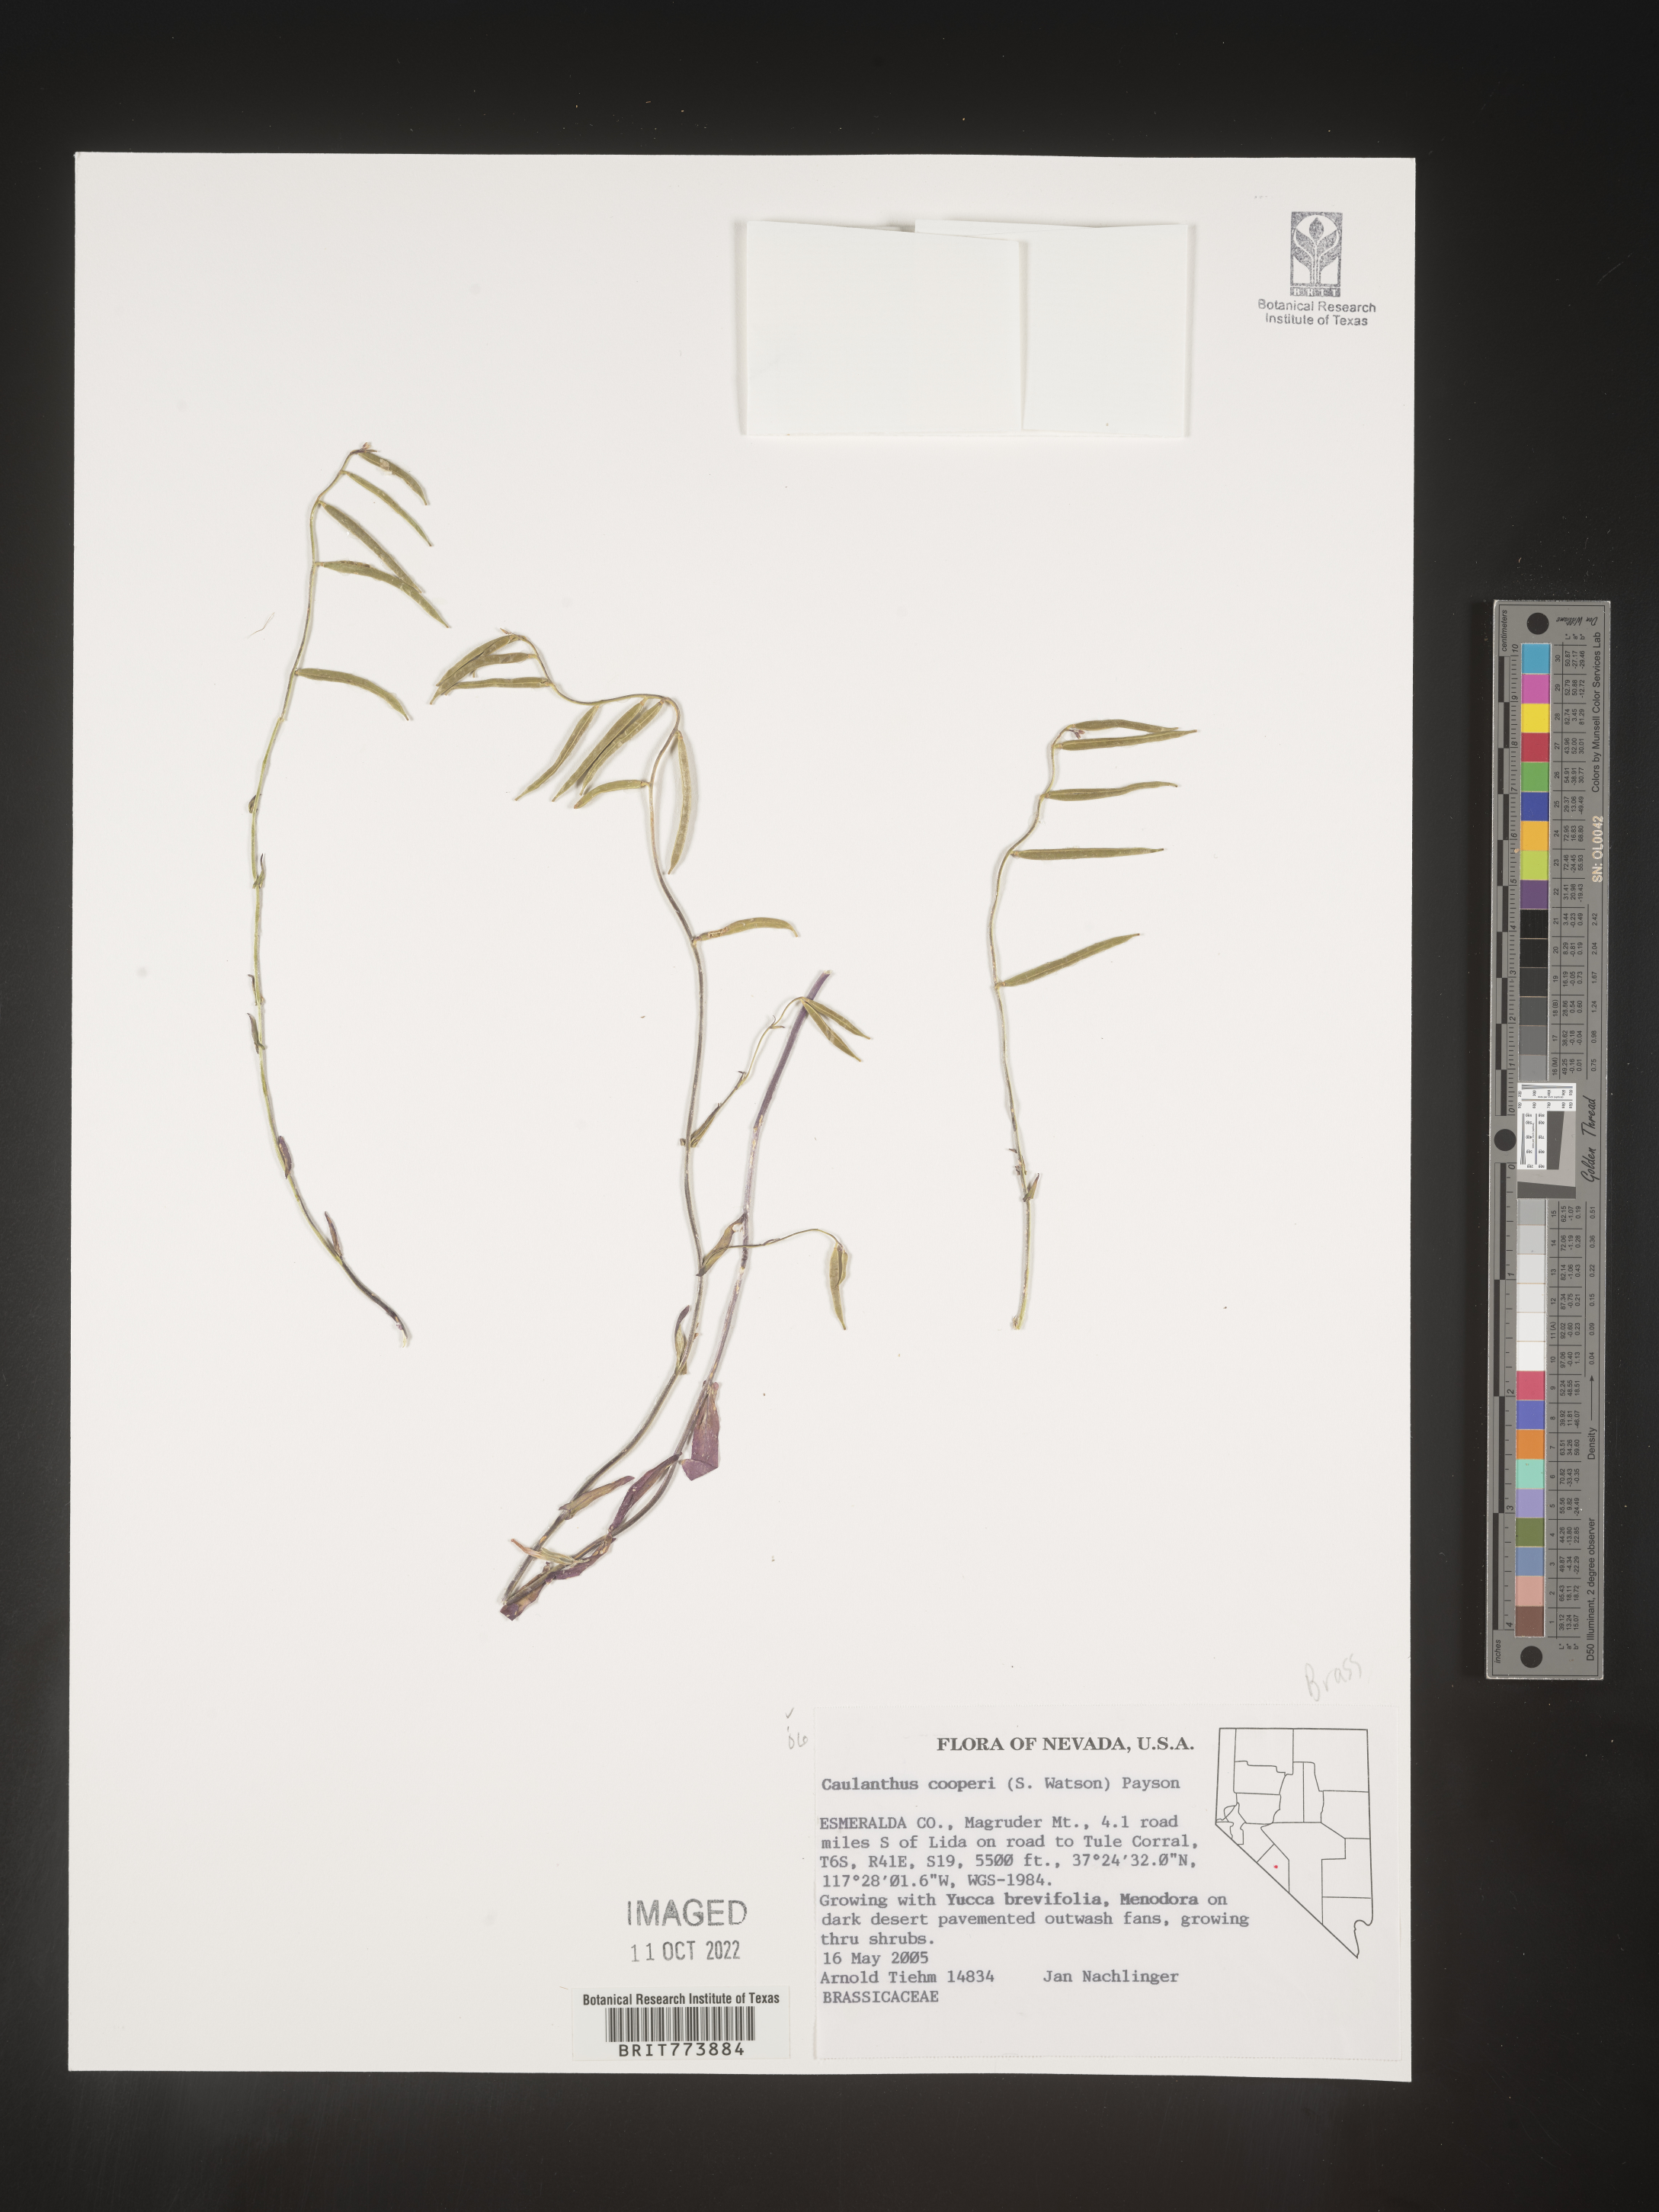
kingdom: Plantae
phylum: Tracheophyta
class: Magnoliopsida
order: Brassicales
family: Brassicaceae
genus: Streptanthus
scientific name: Streptanthus
